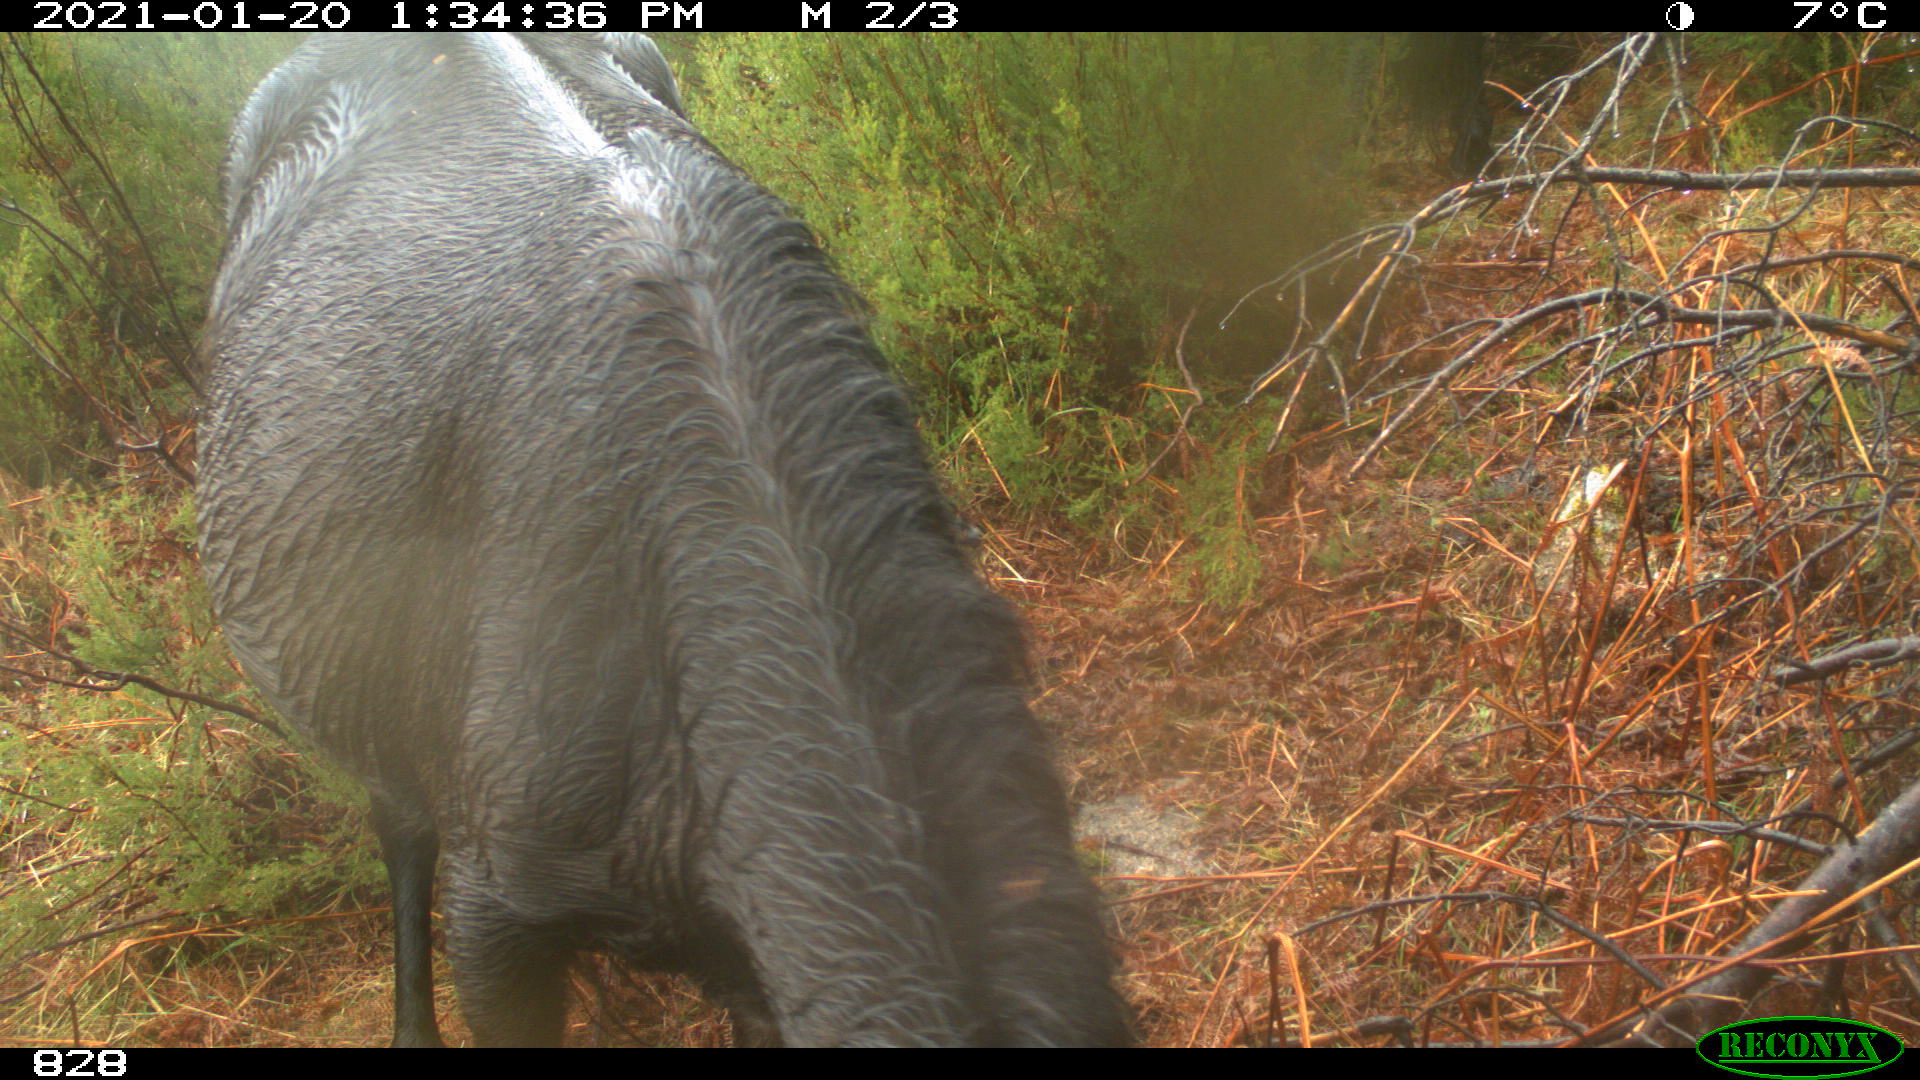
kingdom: Animalia
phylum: Chordata
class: Mammalia
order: Perissodactyla
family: Equidae
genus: Equus
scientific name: Equus caballus
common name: Horse
